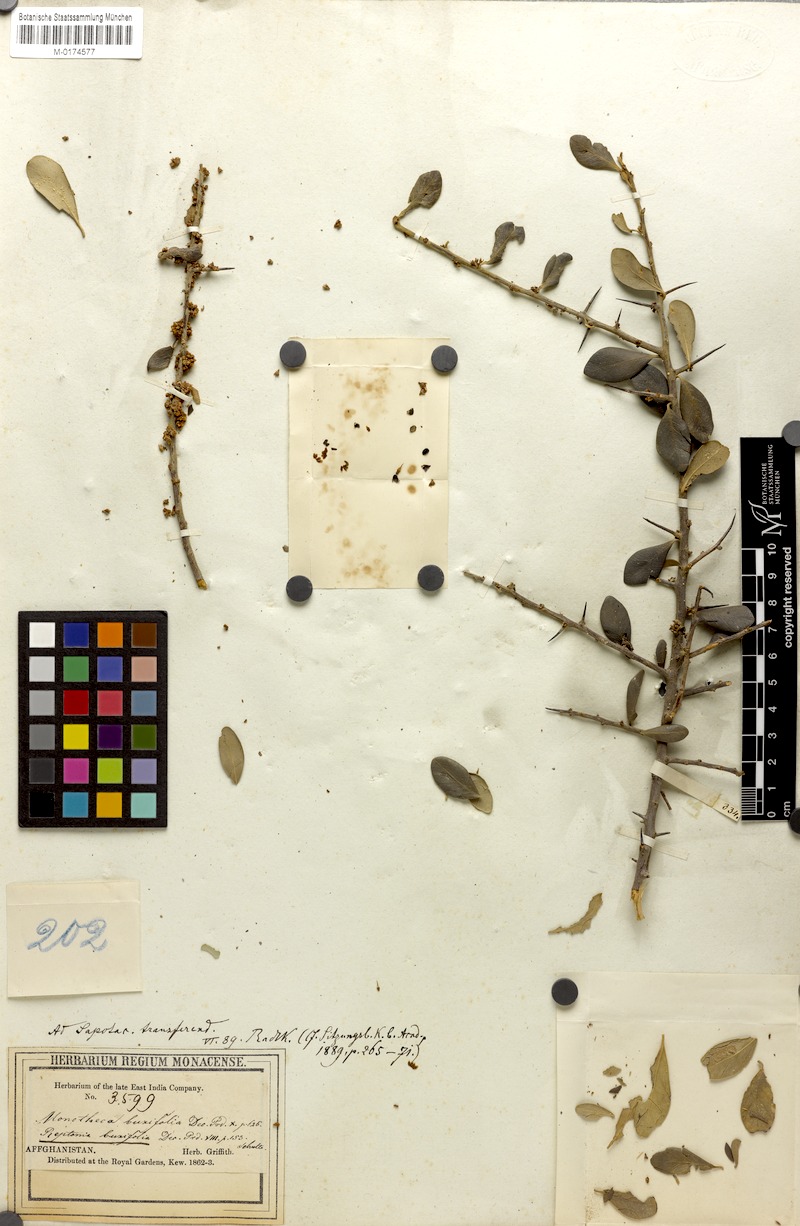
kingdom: Plantae
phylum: Tracheophyta
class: Magnoliopsida
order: Ericales
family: Sapotaceae
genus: Sideroxylon
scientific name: Sideroxylon mascatense
